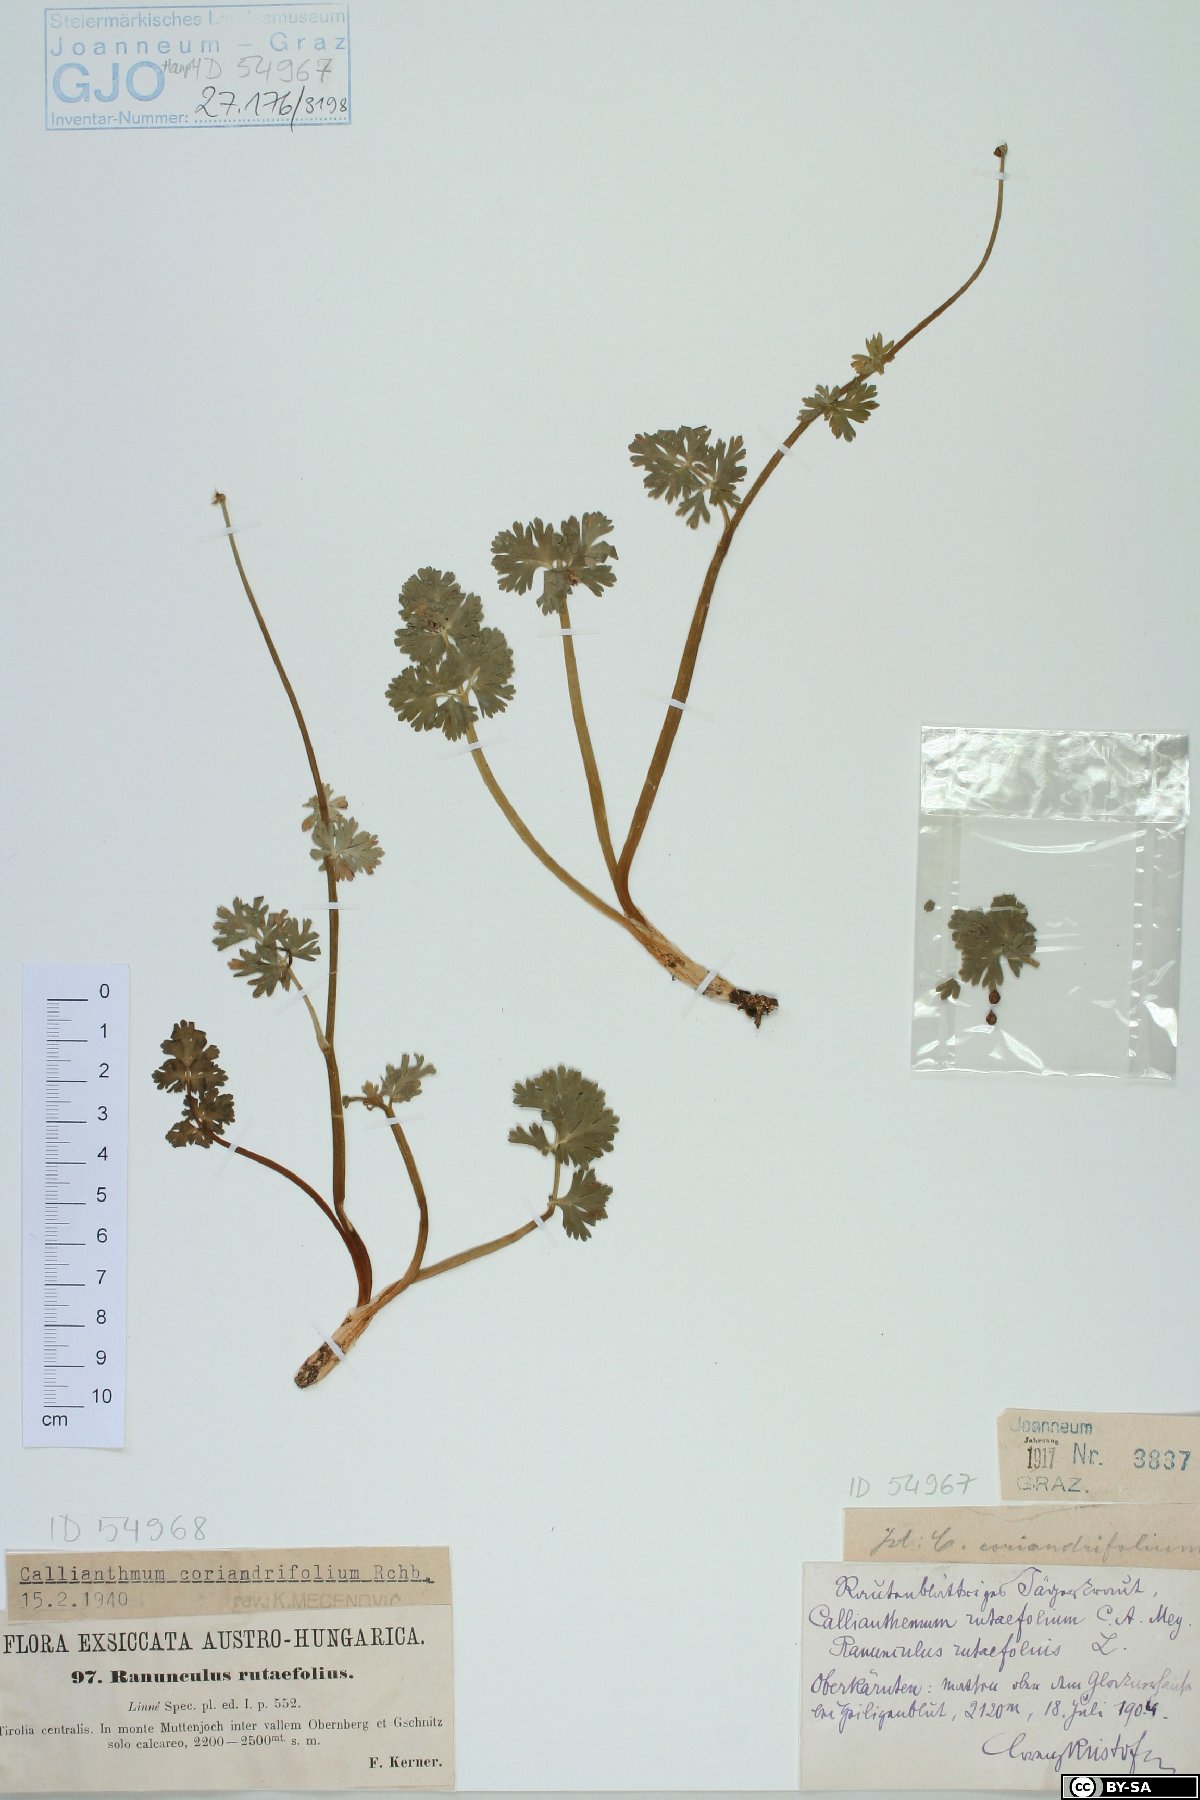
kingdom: Plantae
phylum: Tracheophyta
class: Magnoliopsida
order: Ranunculales
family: Ranunculaceae
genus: Callianthemum
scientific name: Callianthemum anemonoides
